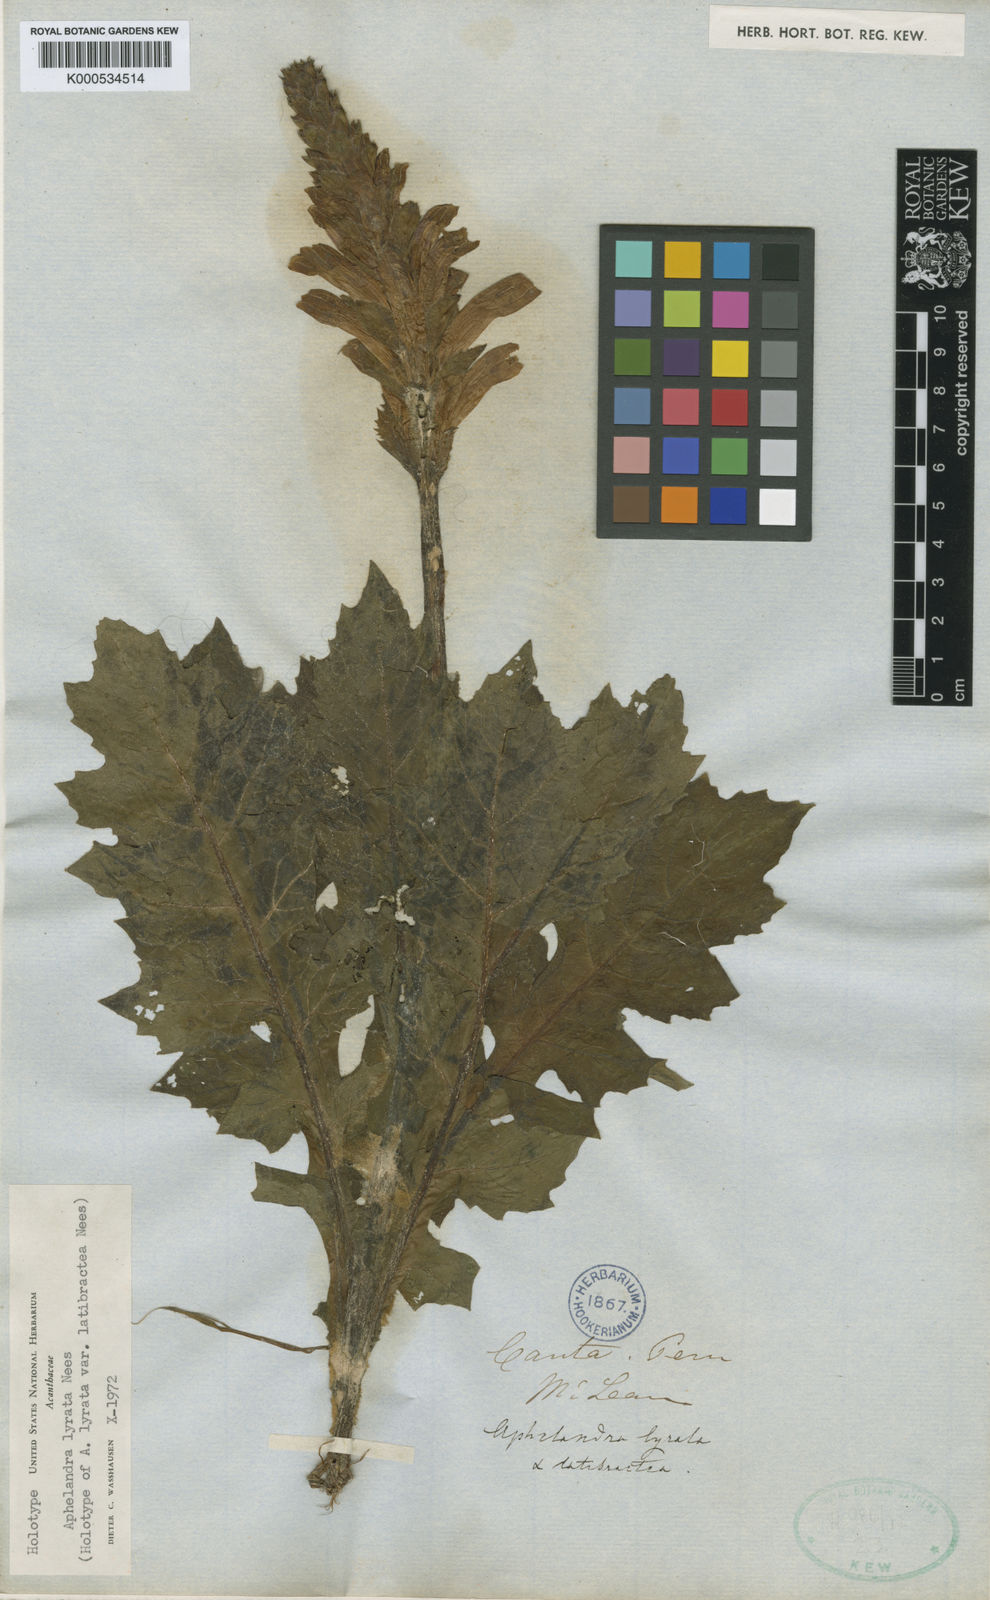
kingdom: Plantae
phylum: Tracheophyta
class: Magnoliopsida
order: Lamiales
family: Acanthaceae
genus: Aphelandra
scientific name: Aphelandra lyrata
